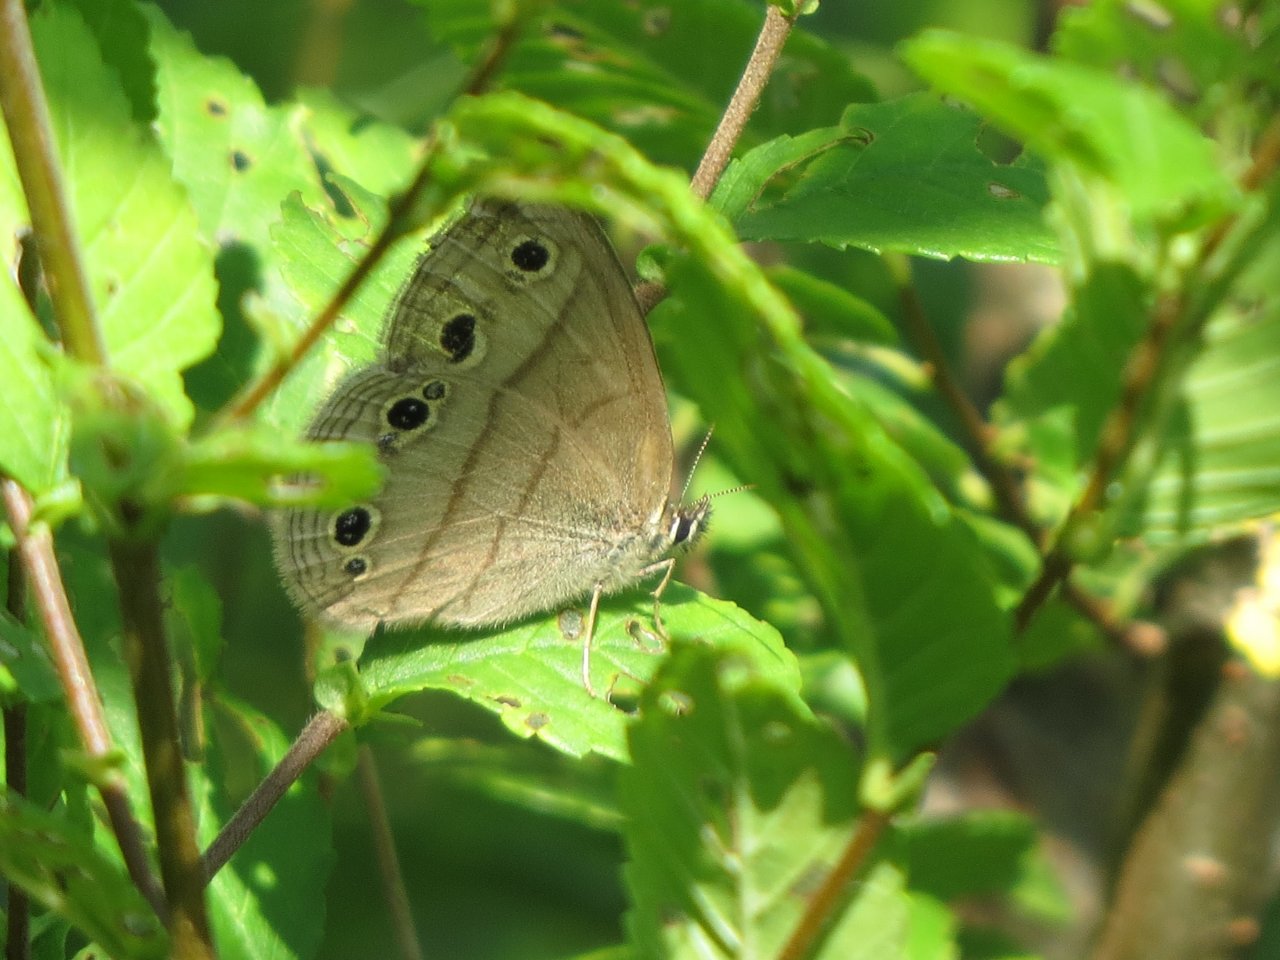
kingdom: Animalia
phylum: Arthropoda
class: Insecta
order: Lepidoptera
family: Nymphalidae
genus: Euptychia
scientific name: Euptychia cymela
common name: Little Wood Satyr
